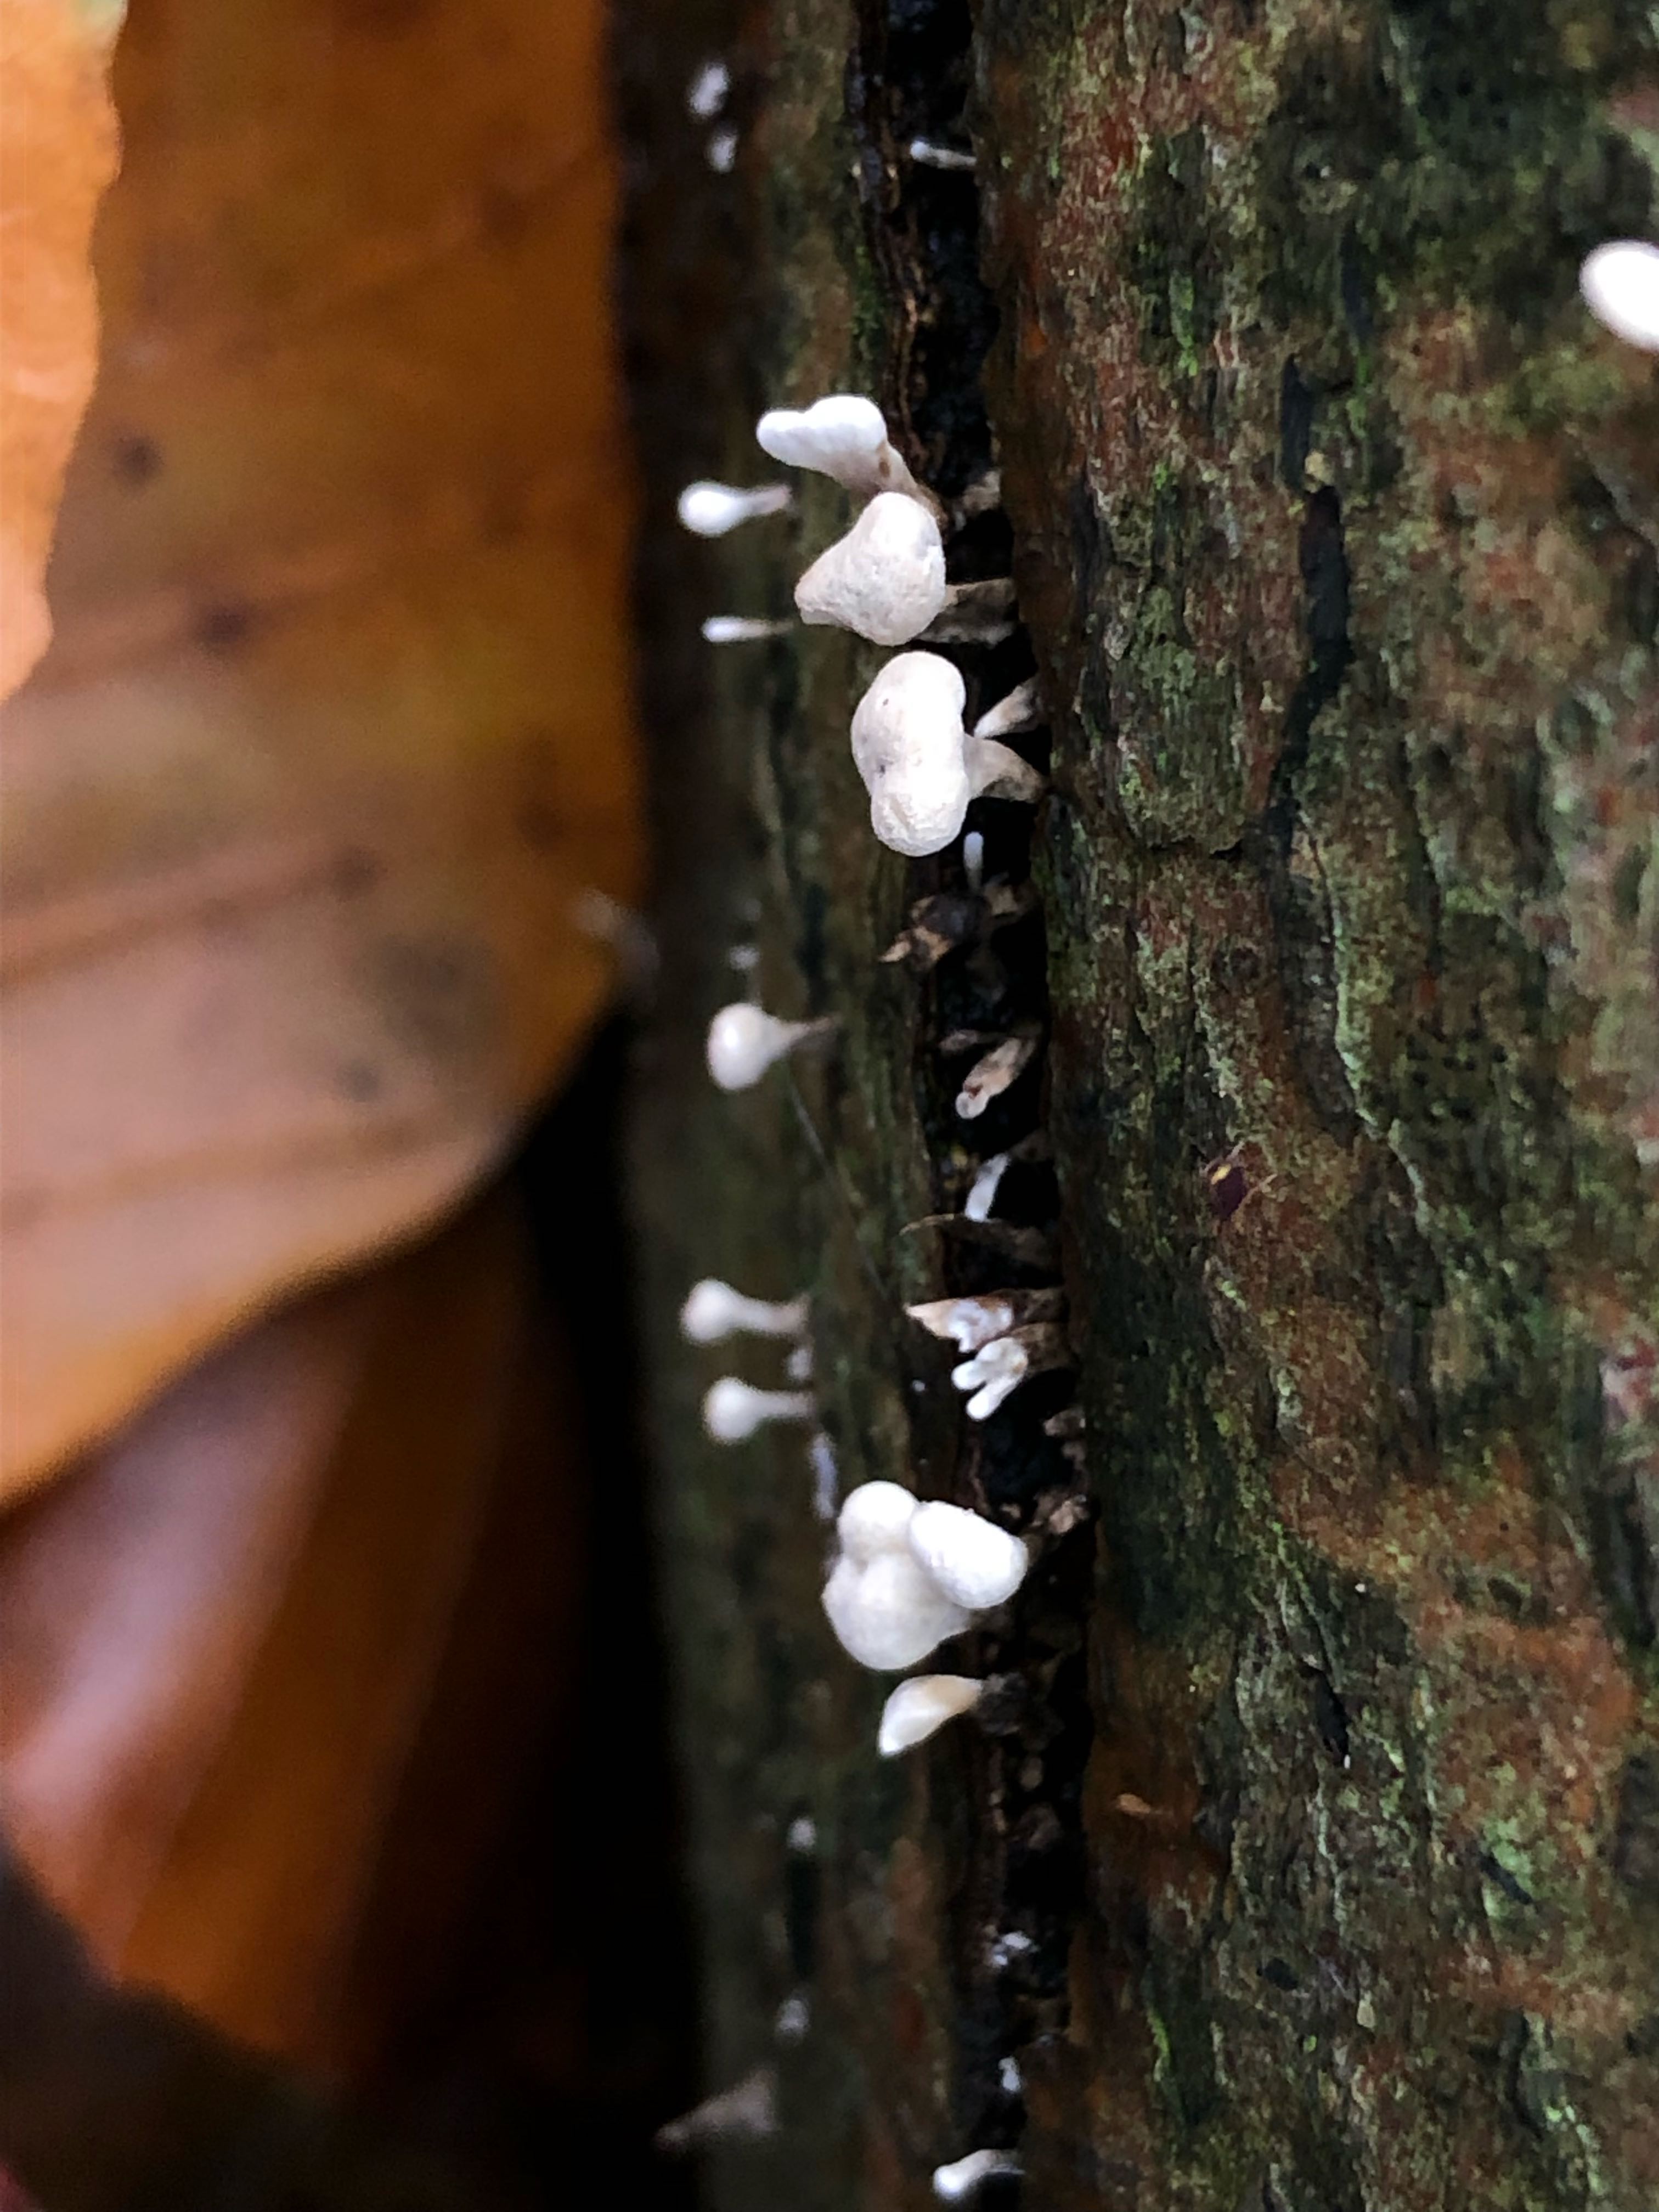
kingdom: Fungi
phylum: Basidiomycota
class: Atractiellomycetes
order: Atractiellales
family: Phleogenaceae
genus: Phleogena
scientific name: Phleogena faginea
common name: pudderkølle
